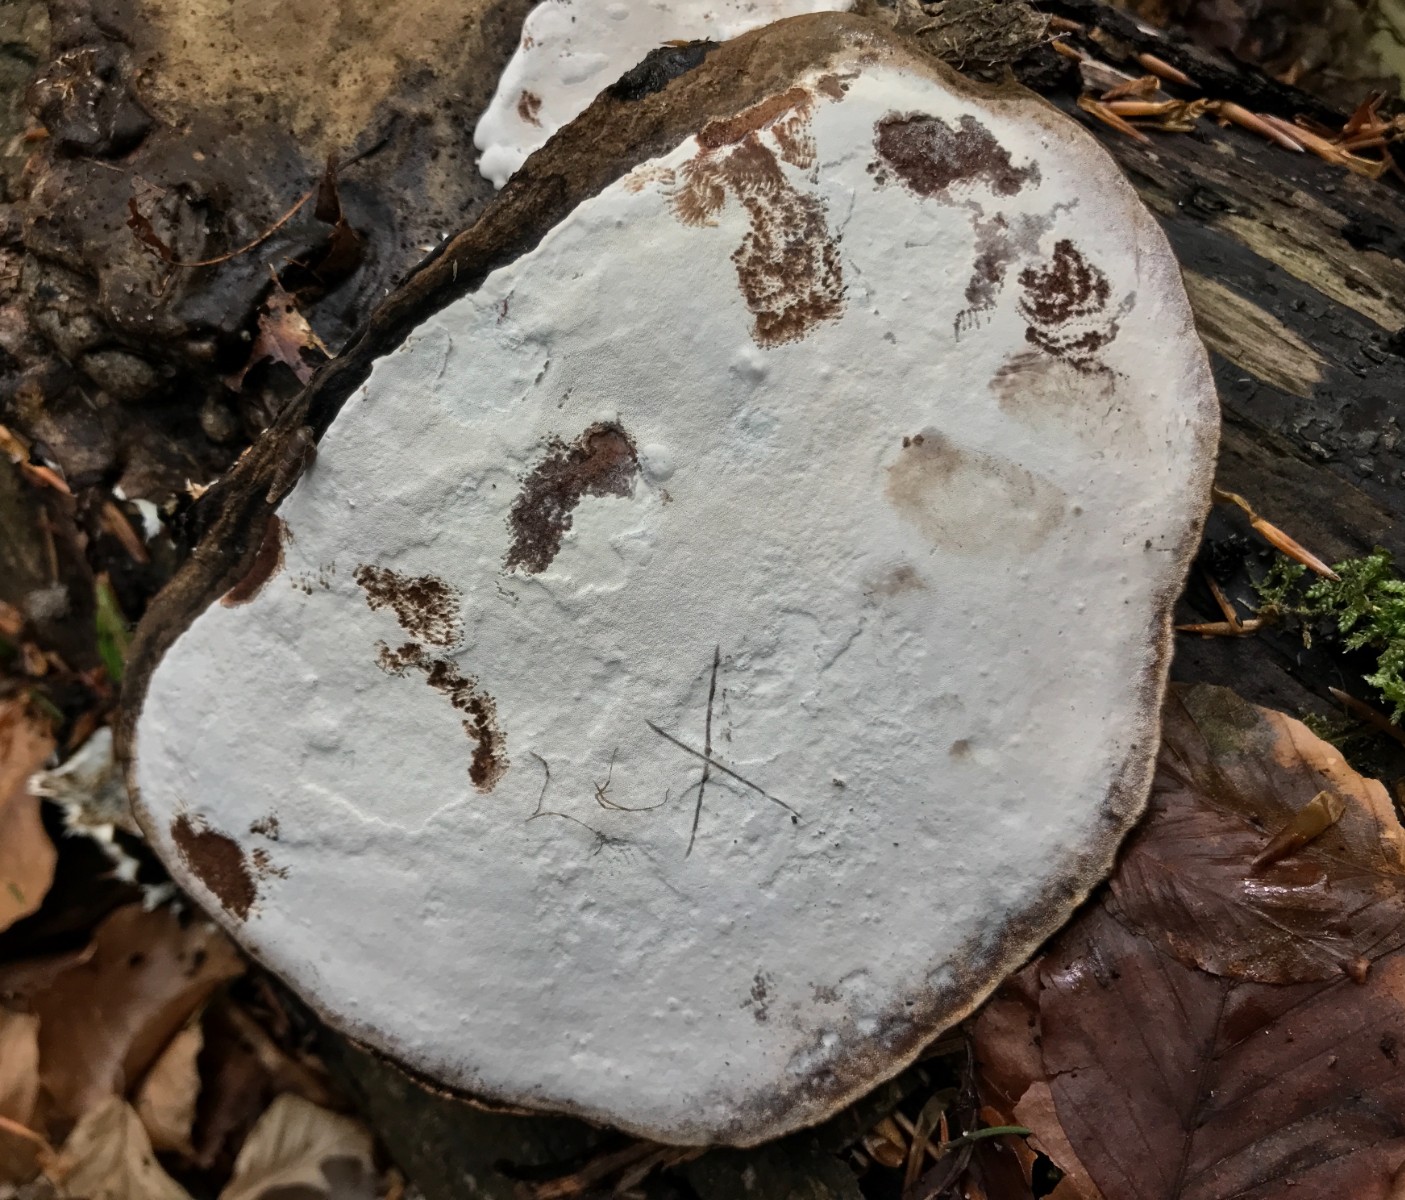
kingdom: Fungi
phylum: Basidiomycota
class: Agaricomycetes
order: Polyporales
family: Polyporaceae
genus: Ganoderma
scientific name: Ganoderma applanatum
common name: flad lakporesvamp
